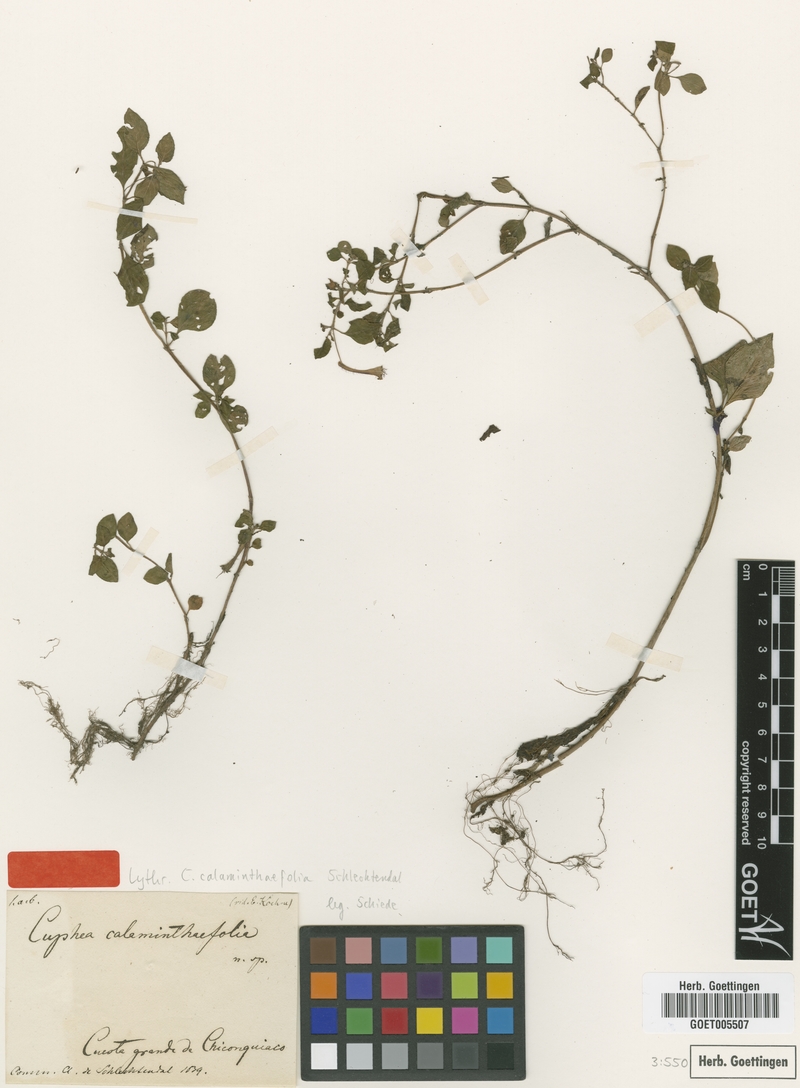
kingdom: Plantae
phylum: Tracheophyta
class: Magnoliopsida
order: Myrtales
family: Lythraceae
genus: Cuphea
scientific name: Cuphea calaminthaefolia
